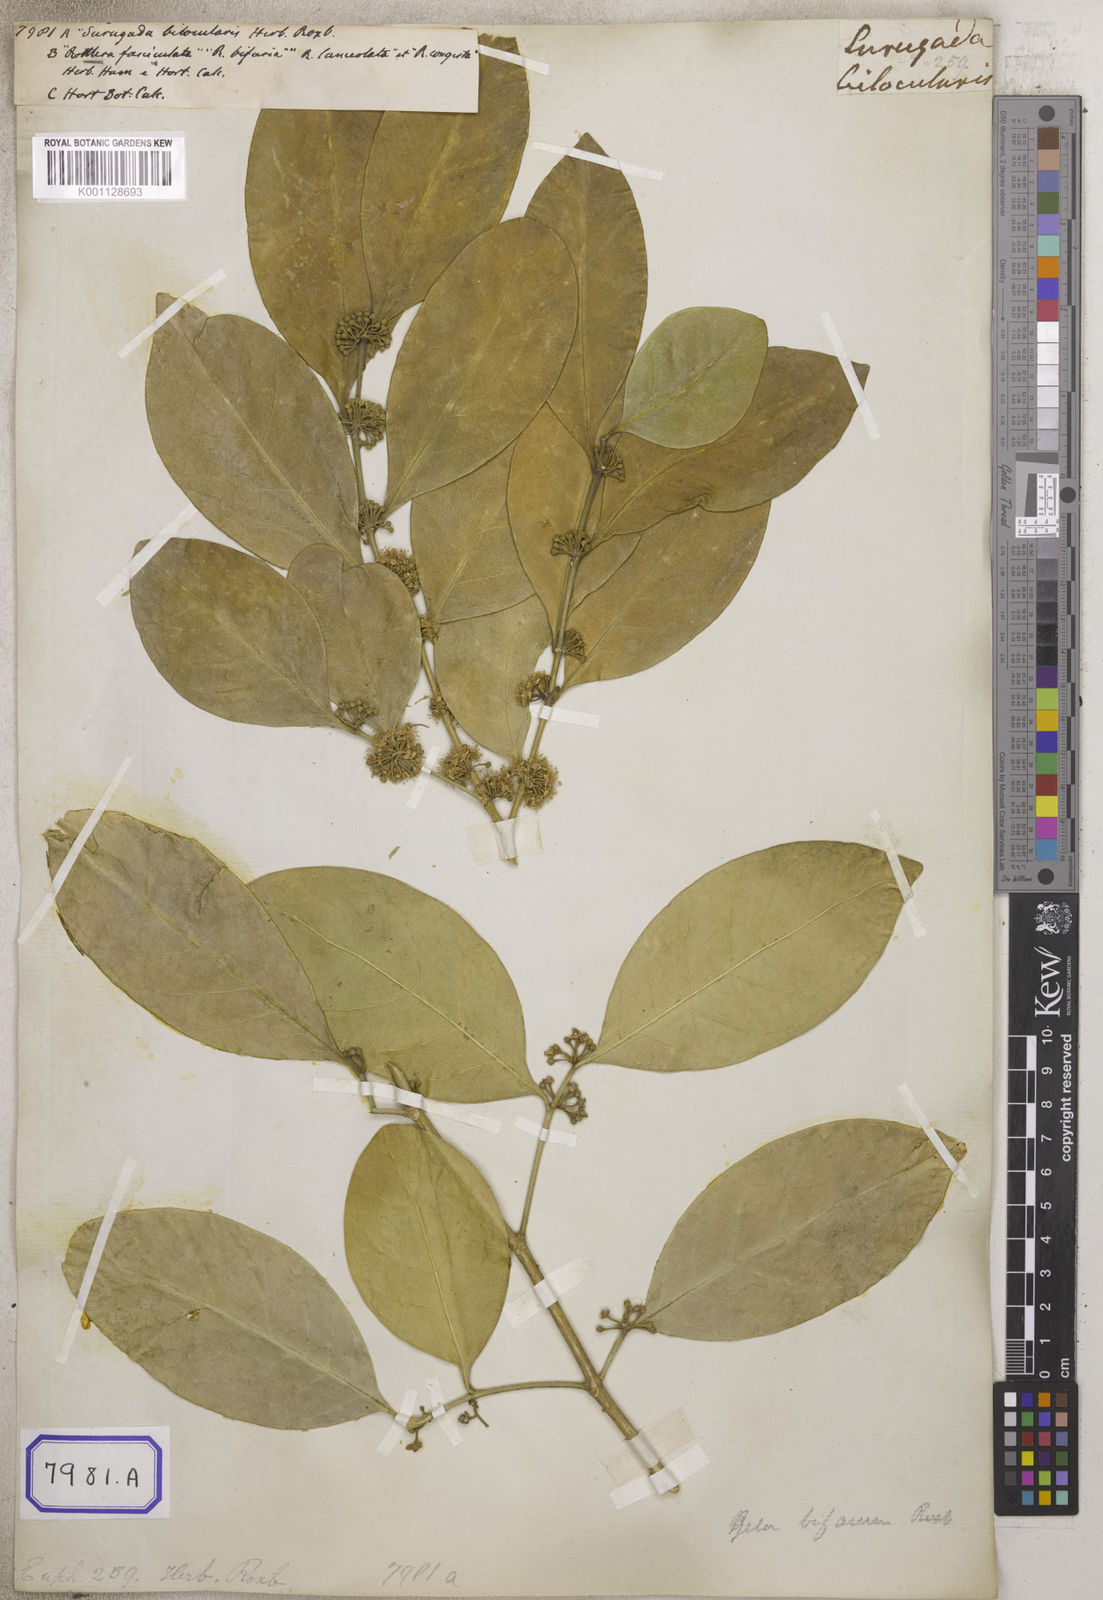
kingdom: Plantae
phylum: Tracheophyta
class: Magnoliopsida
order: Malpighiales
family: Euphorbiaceae
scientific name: Euphorbiaceae
